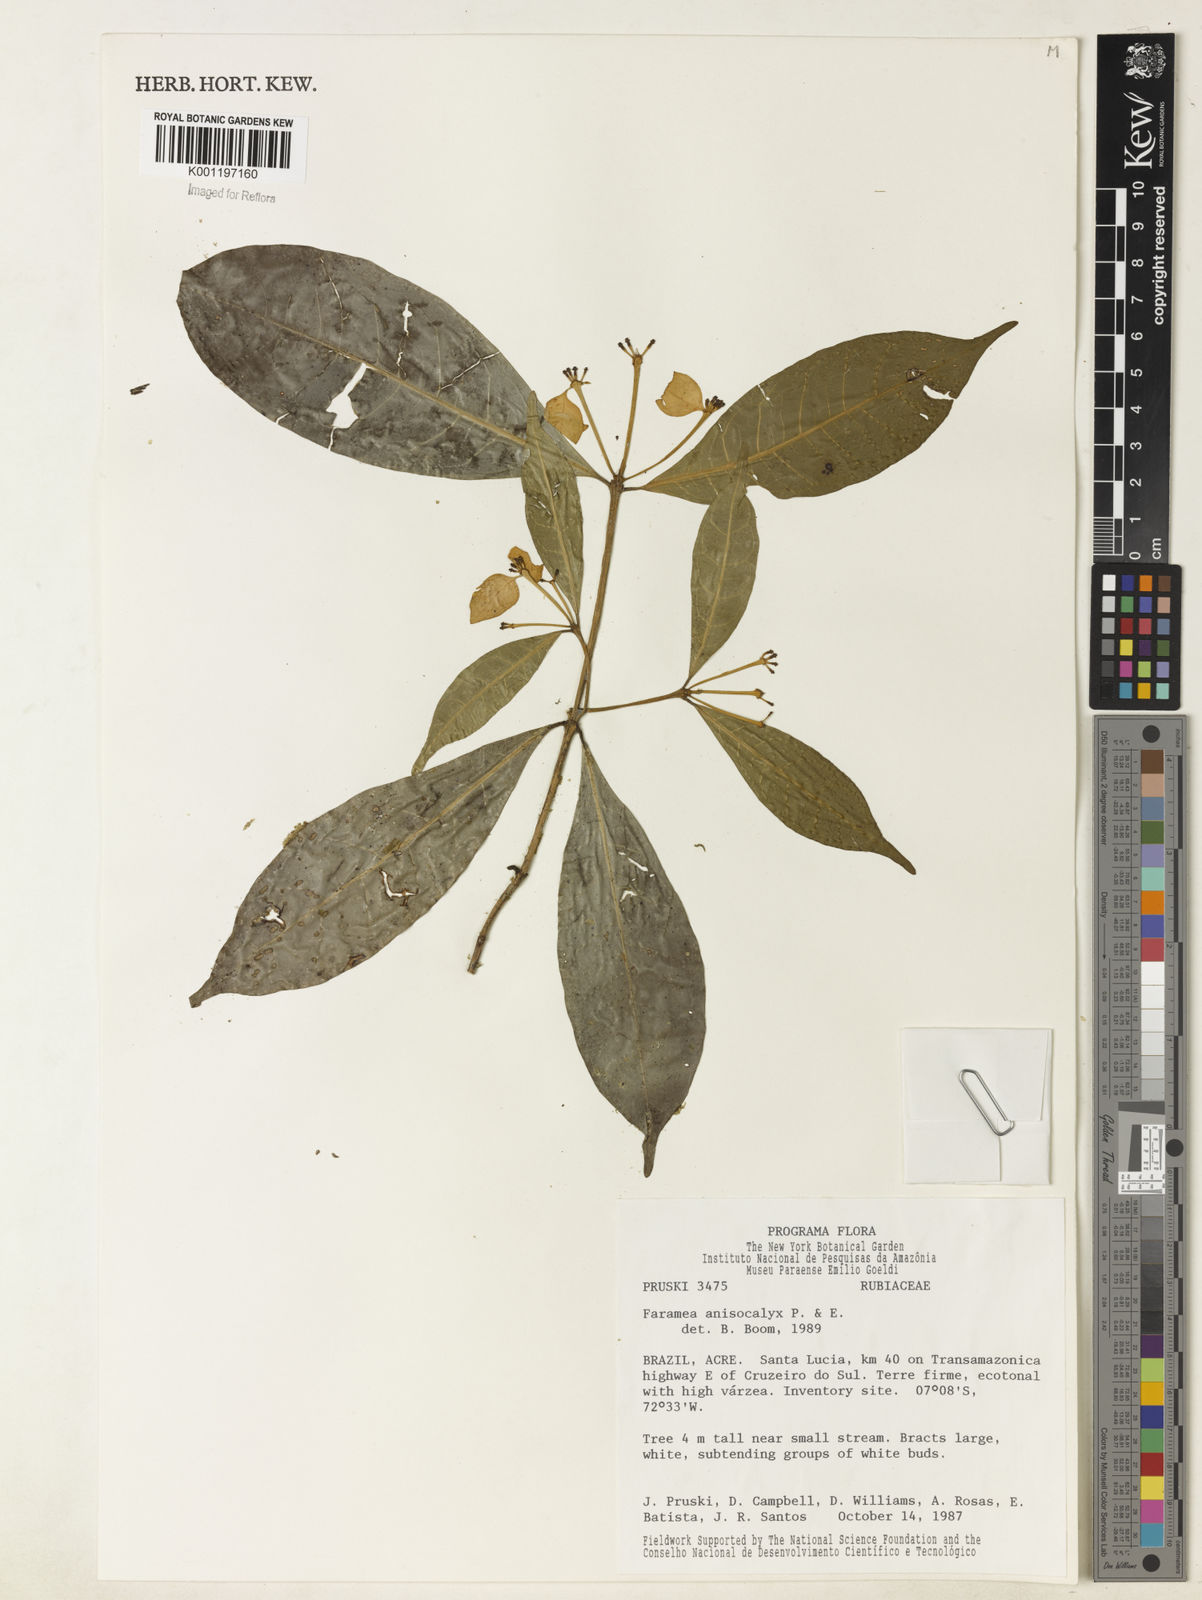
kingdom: Plantae
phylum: Tracheophyta
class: Magnoliopsida
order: Gentianales
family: Rubiaceae
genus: Faramea
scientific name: Faramea anisocalyx
